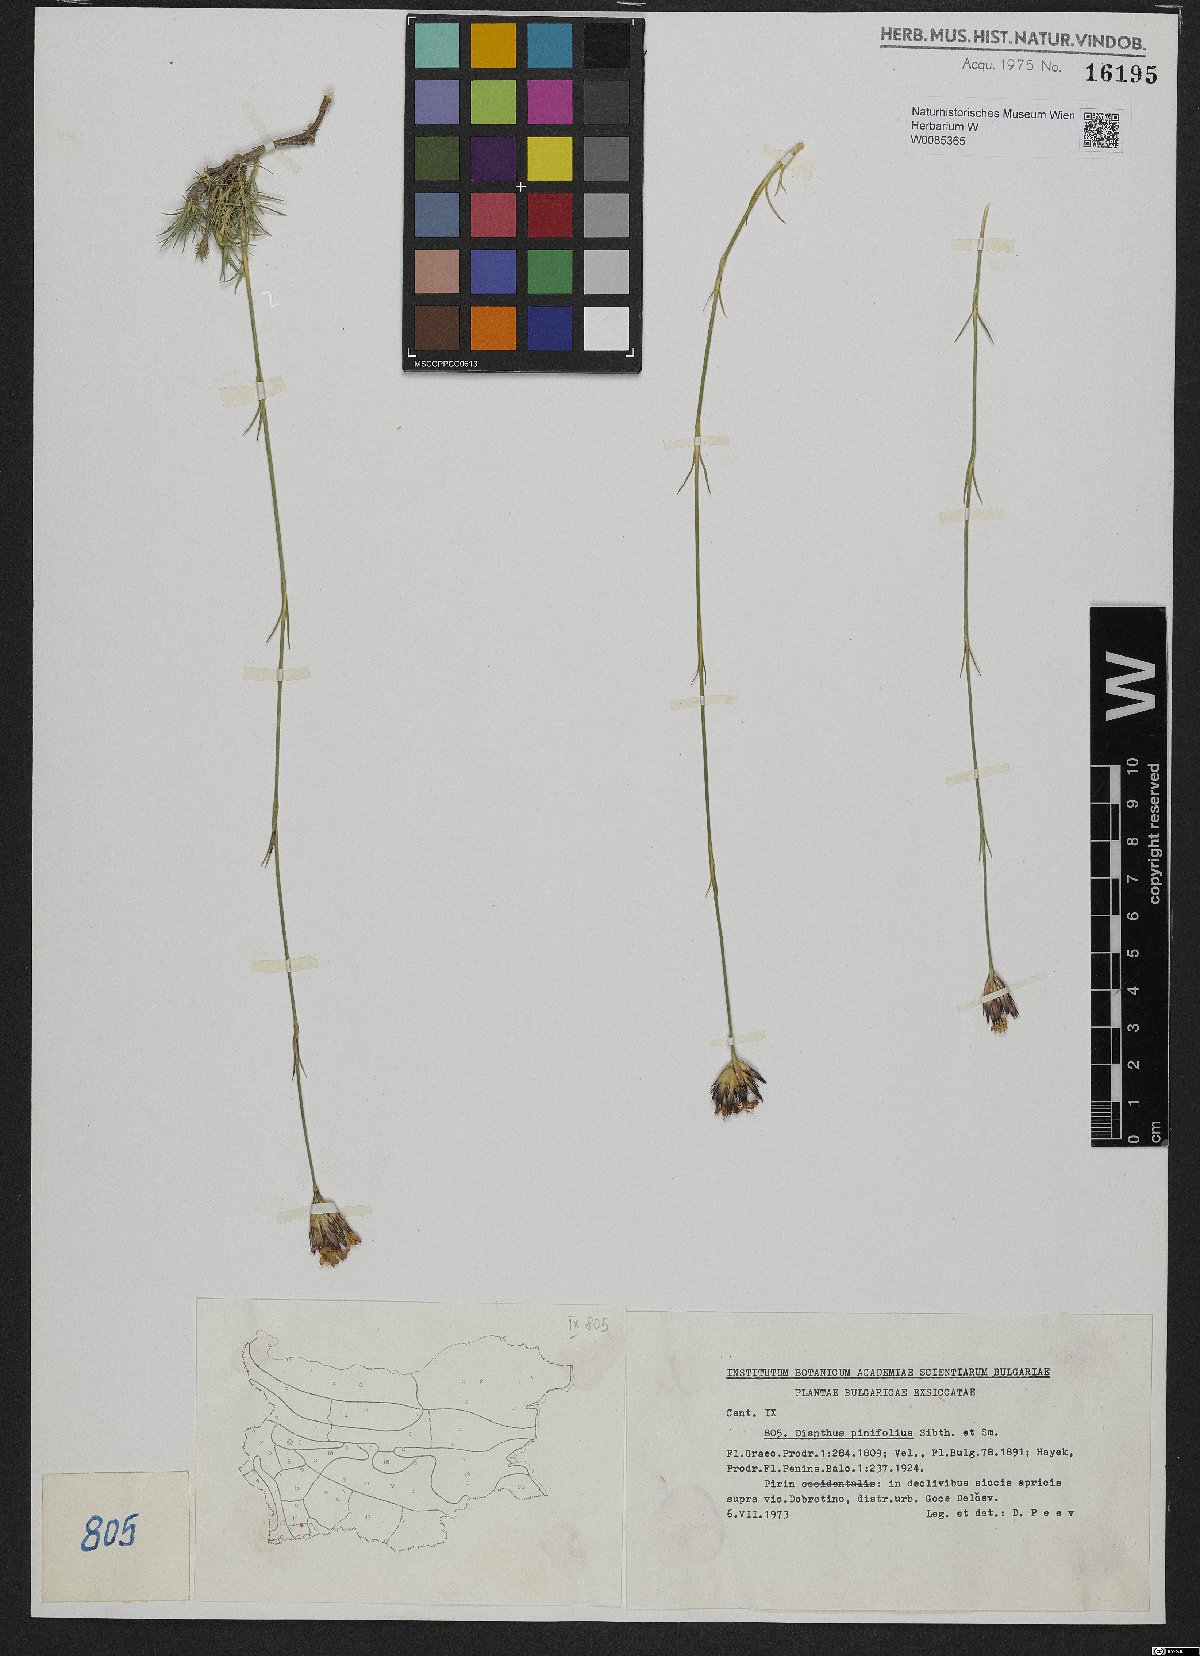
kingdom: Plantae
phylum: Tracheophyta
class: Magnoliopsida
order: Caryophyllales
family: Caryophyllaceae
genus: Dianthus
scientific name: Dianthus pinifolius
